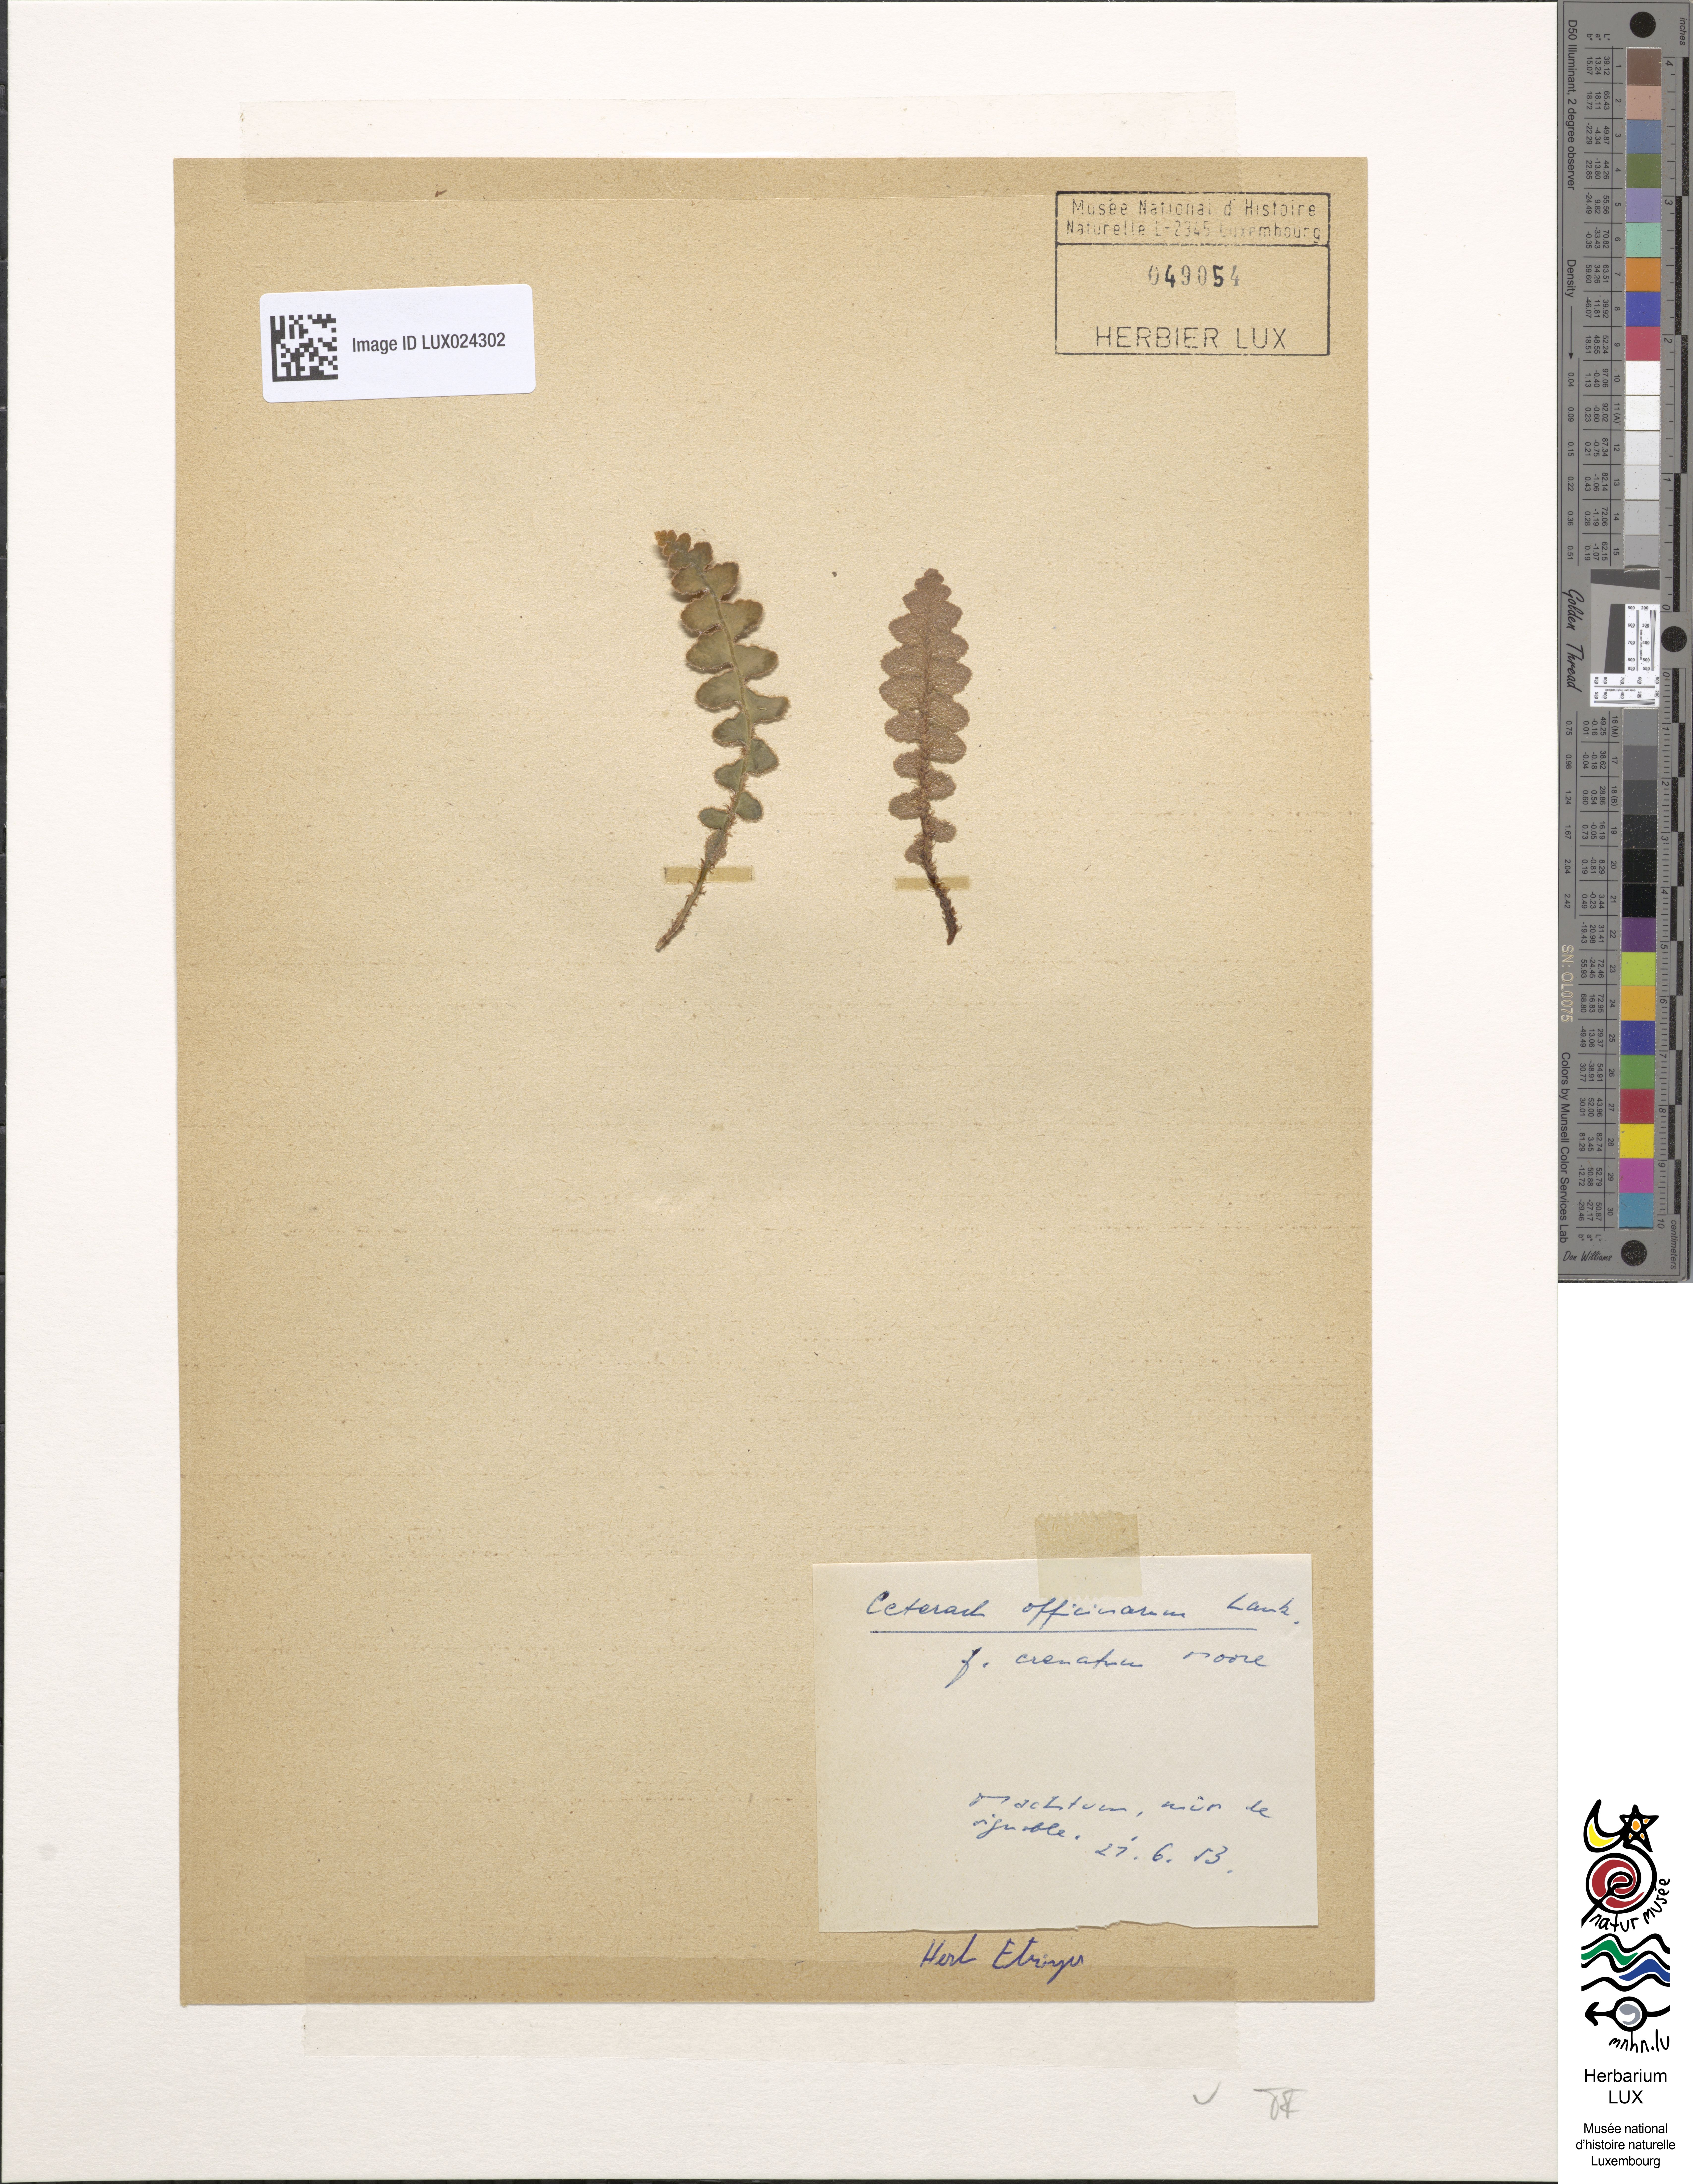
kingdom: Plantae
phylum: Tracheophyta
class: Polypodiopsida
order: Polypodiales
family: Aspleniaceae
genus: Asplenium
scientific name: Asplenium ceterach
